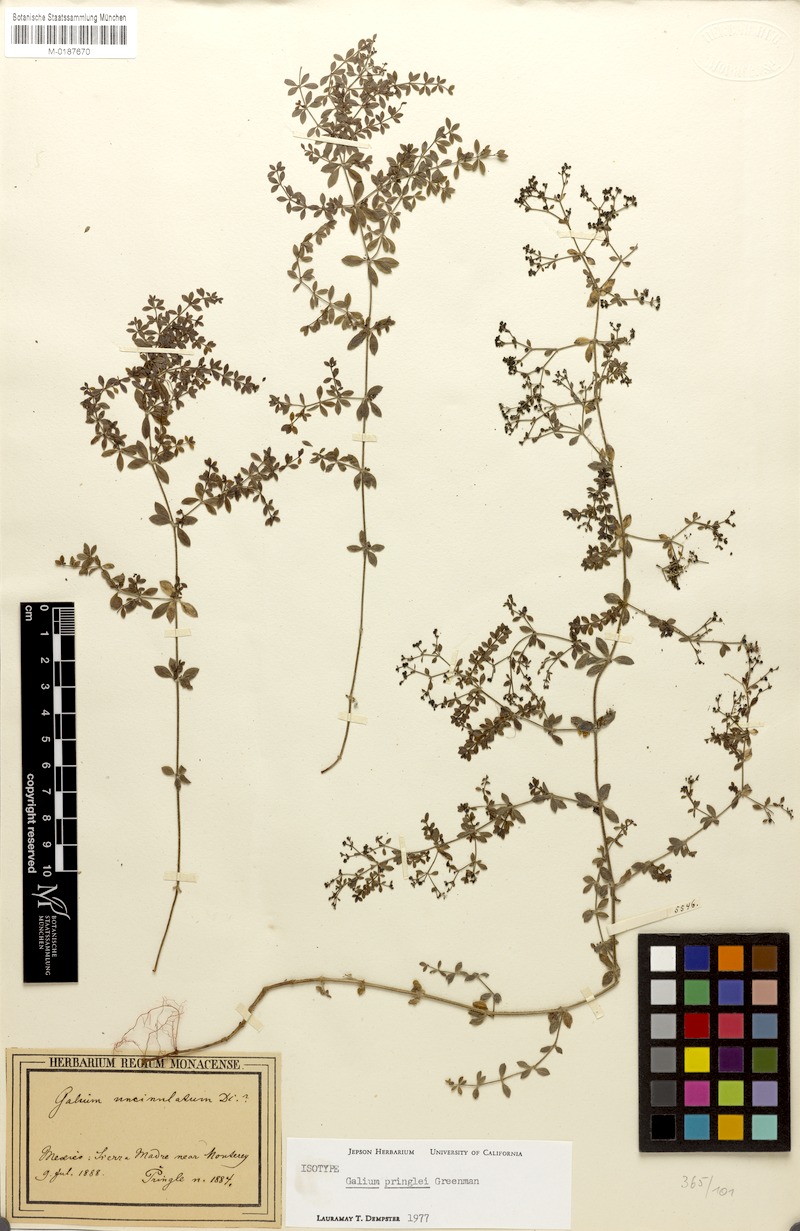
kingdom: Plantae
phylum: Tracheophyta
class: Magnoliopsida
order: Gentianales
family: Rubiaceae
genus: Galium
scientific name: Galium pringlei
